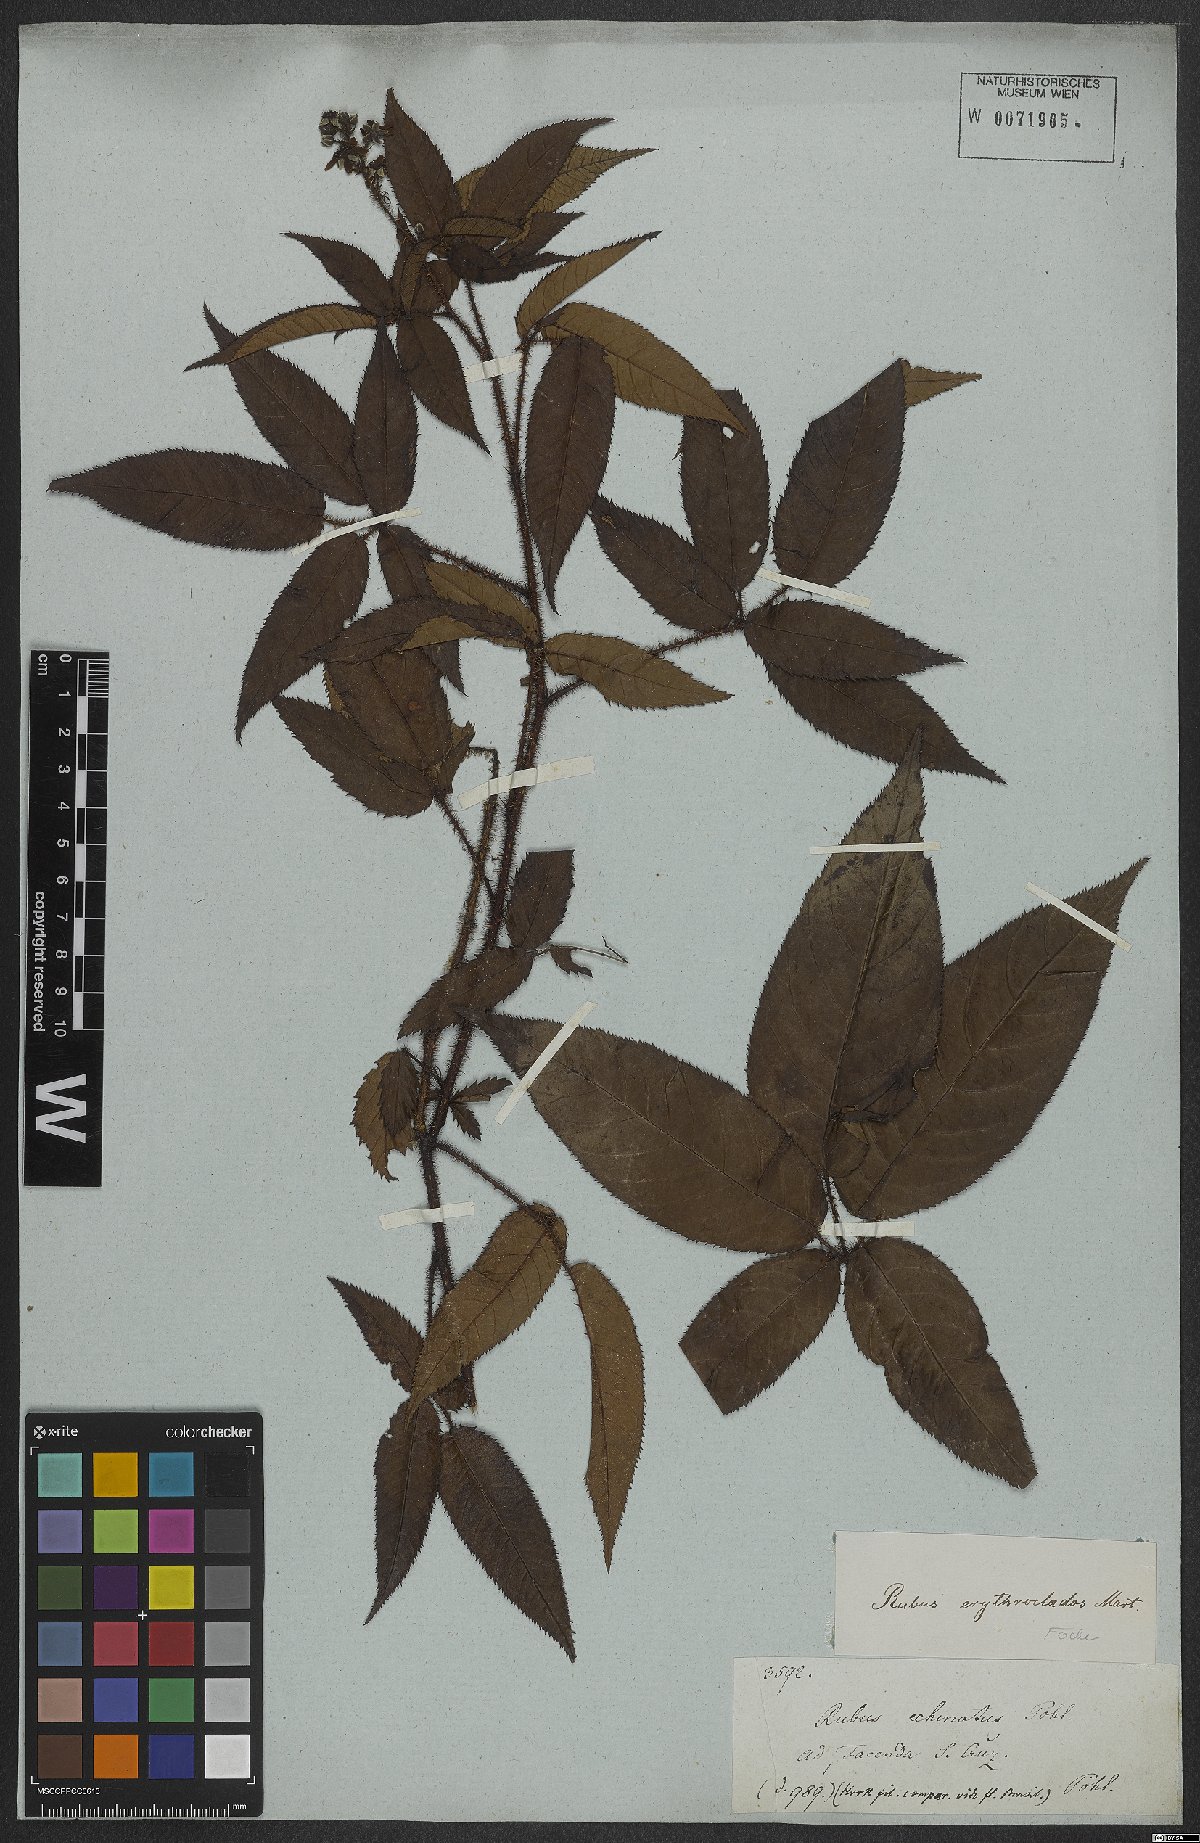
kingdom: Plantae
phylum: Tracheophyta
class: Magnoliopsida
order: Rosales
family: Rosaceae
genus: Rubus
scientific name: Rubus erythroclados
